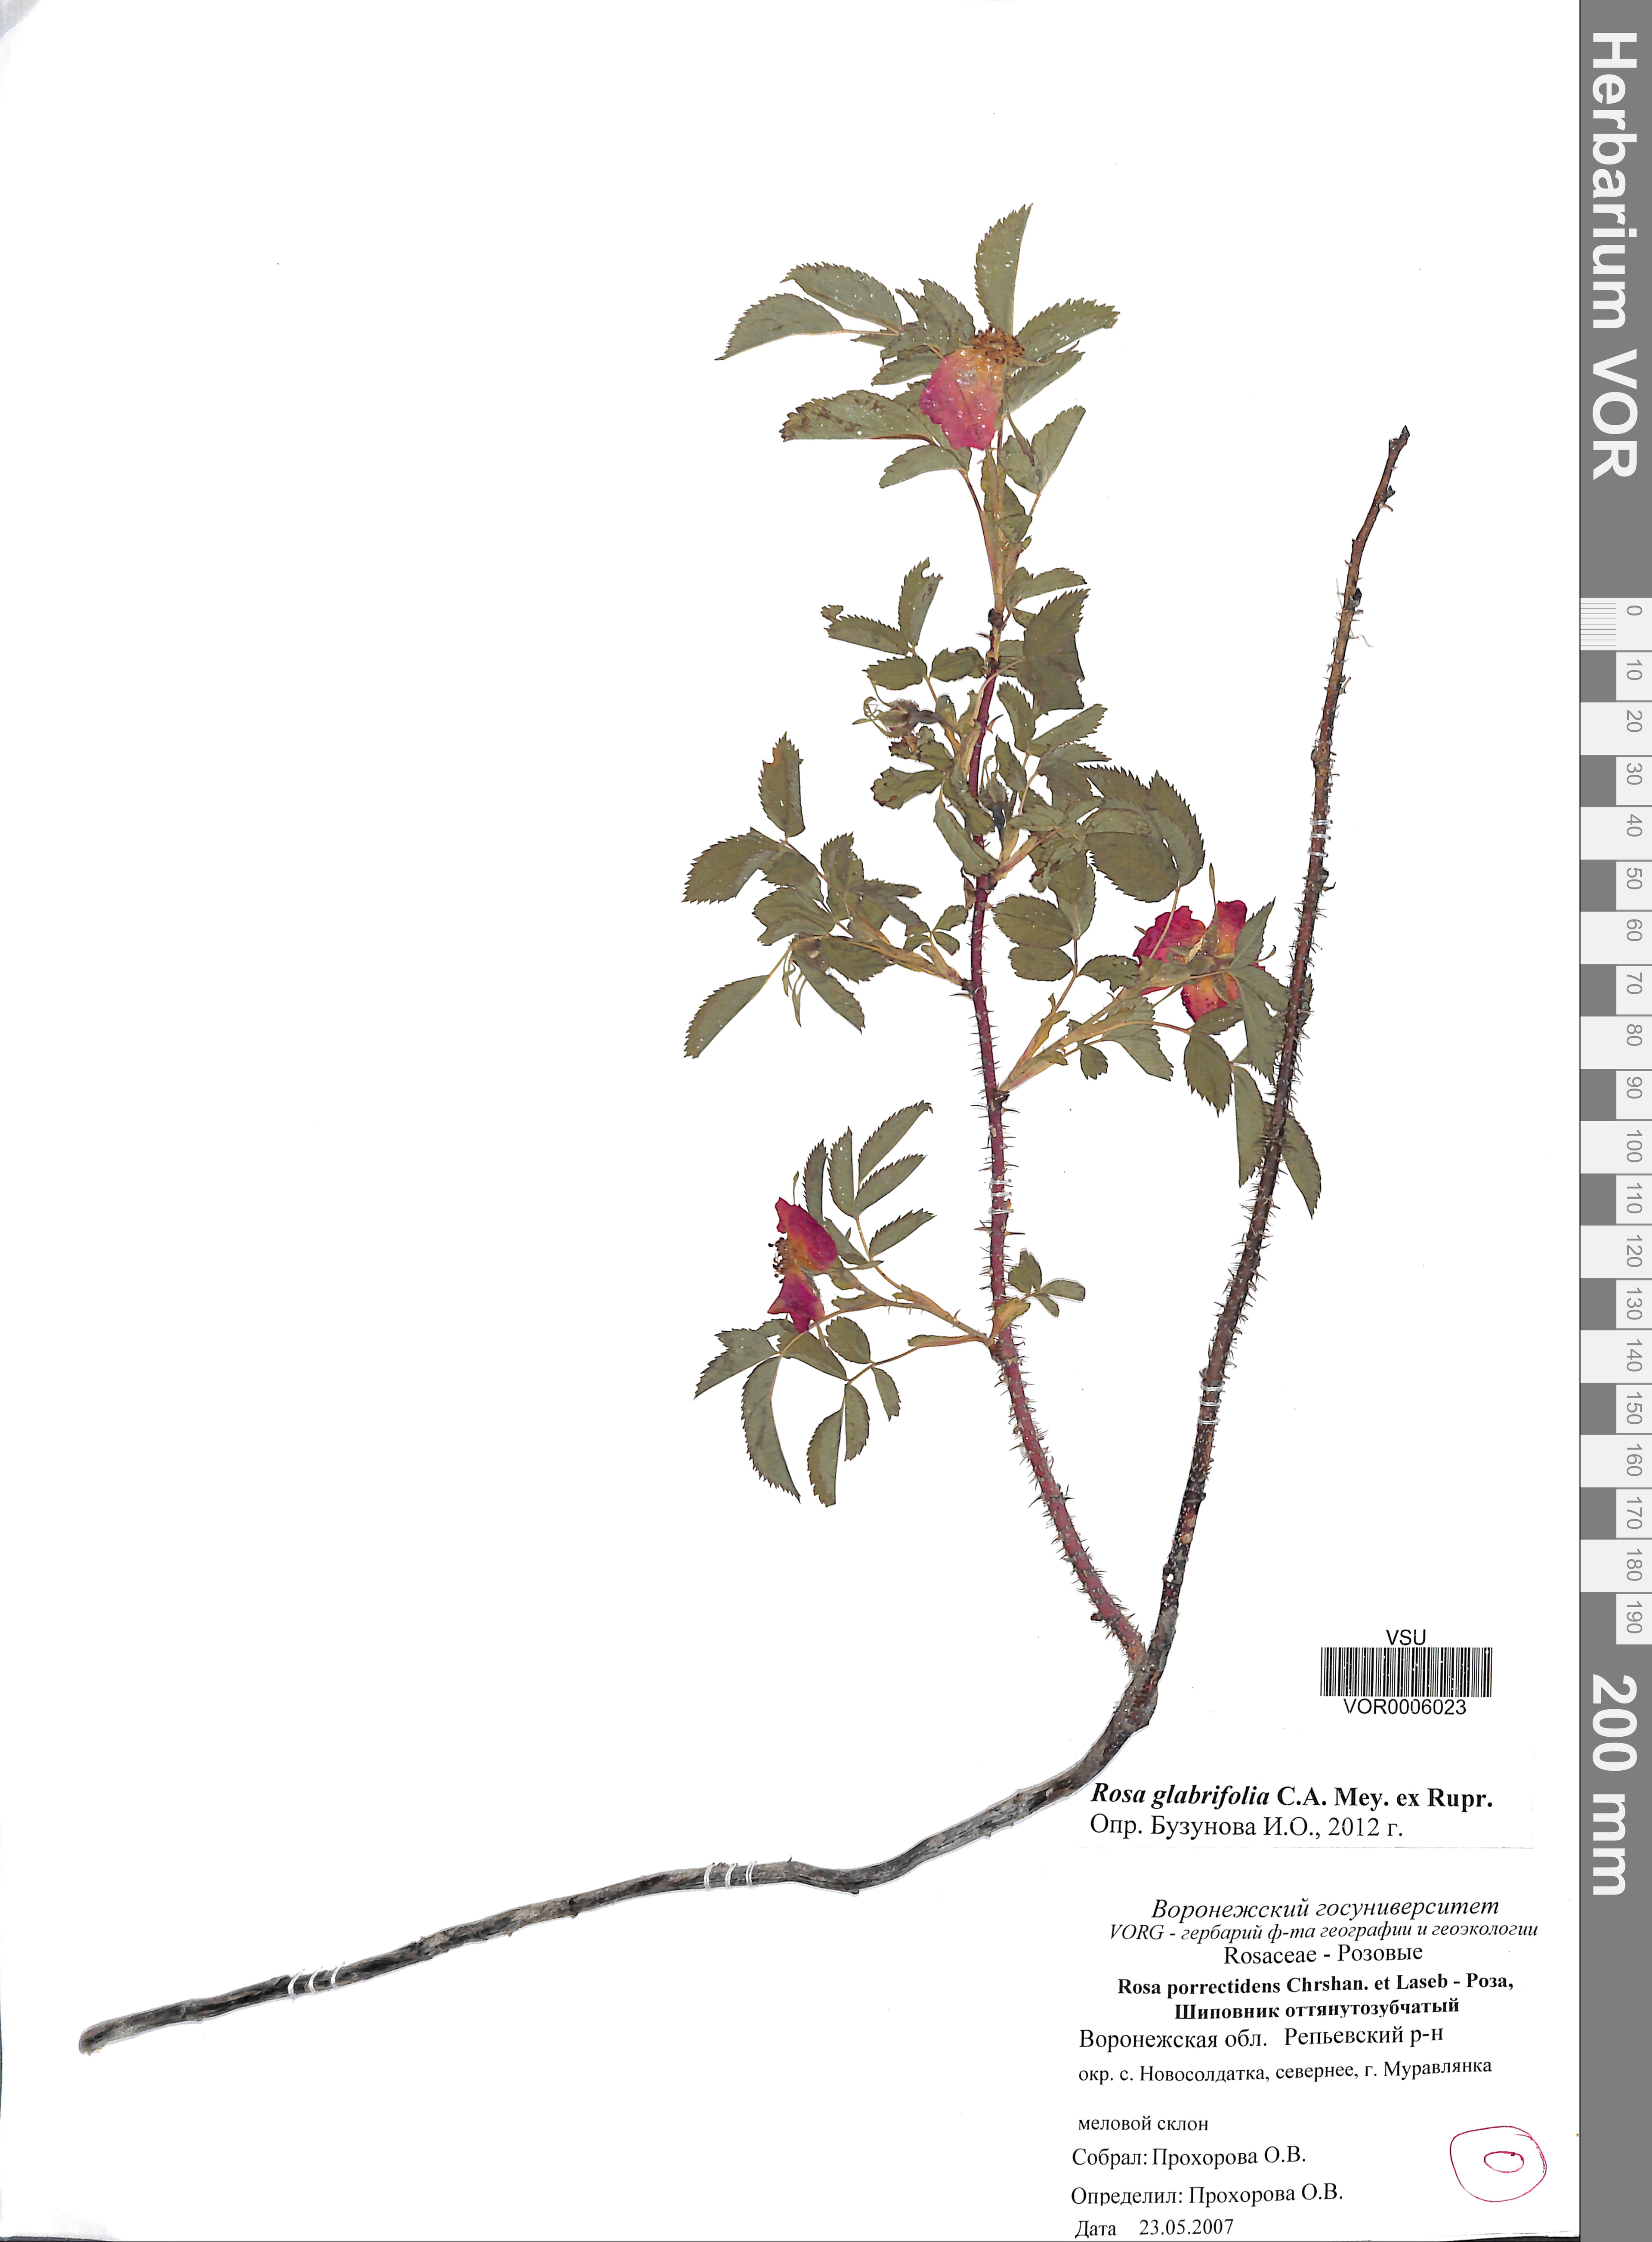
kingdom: Plantae
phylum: Tracheophyta
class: Magnoliopsida
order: Rosales
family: Rosaceae
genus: Rosa
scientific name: Rosa glabrifolia
